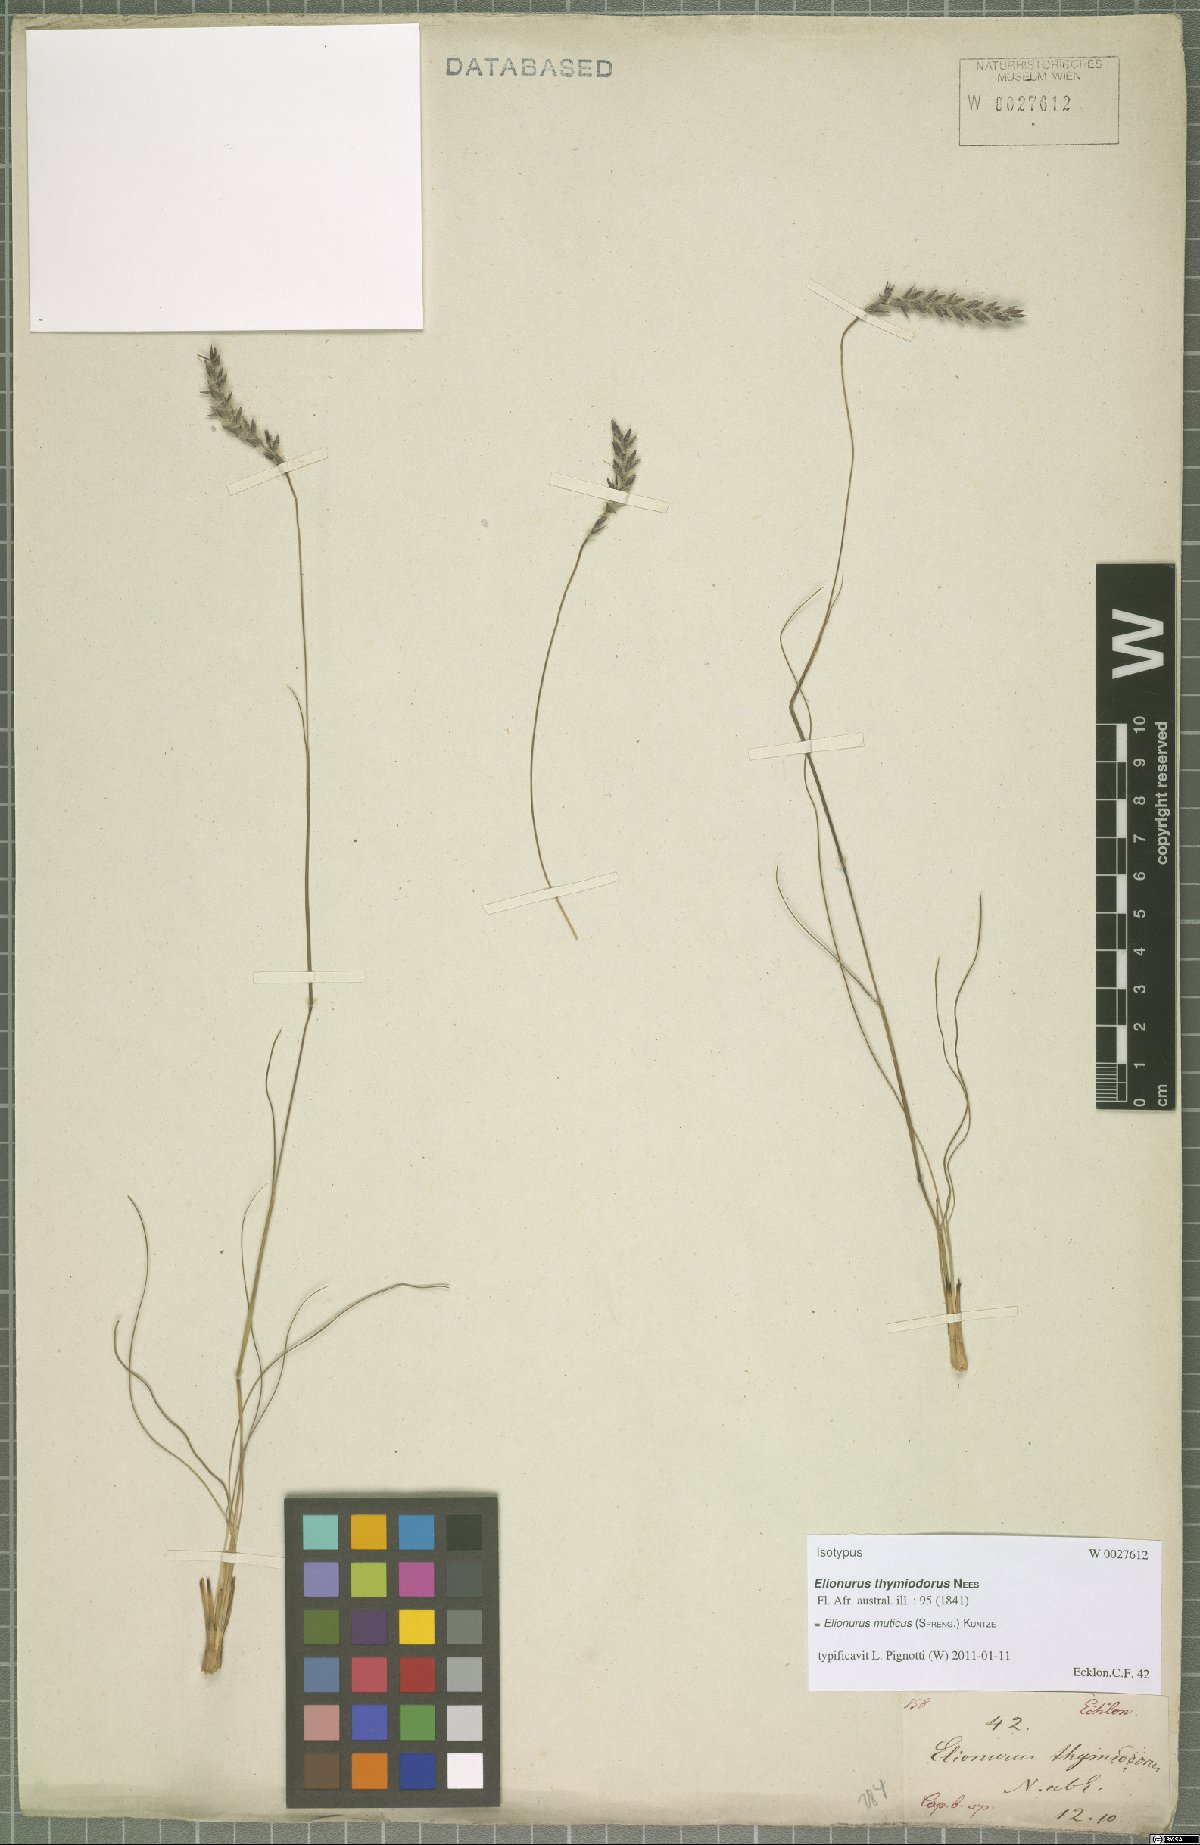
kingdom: Plantae
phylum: Tracheophyta
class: Liliopsida
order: Poales
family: Poaceae
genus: Elionurus
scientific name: Elionurus muticus
